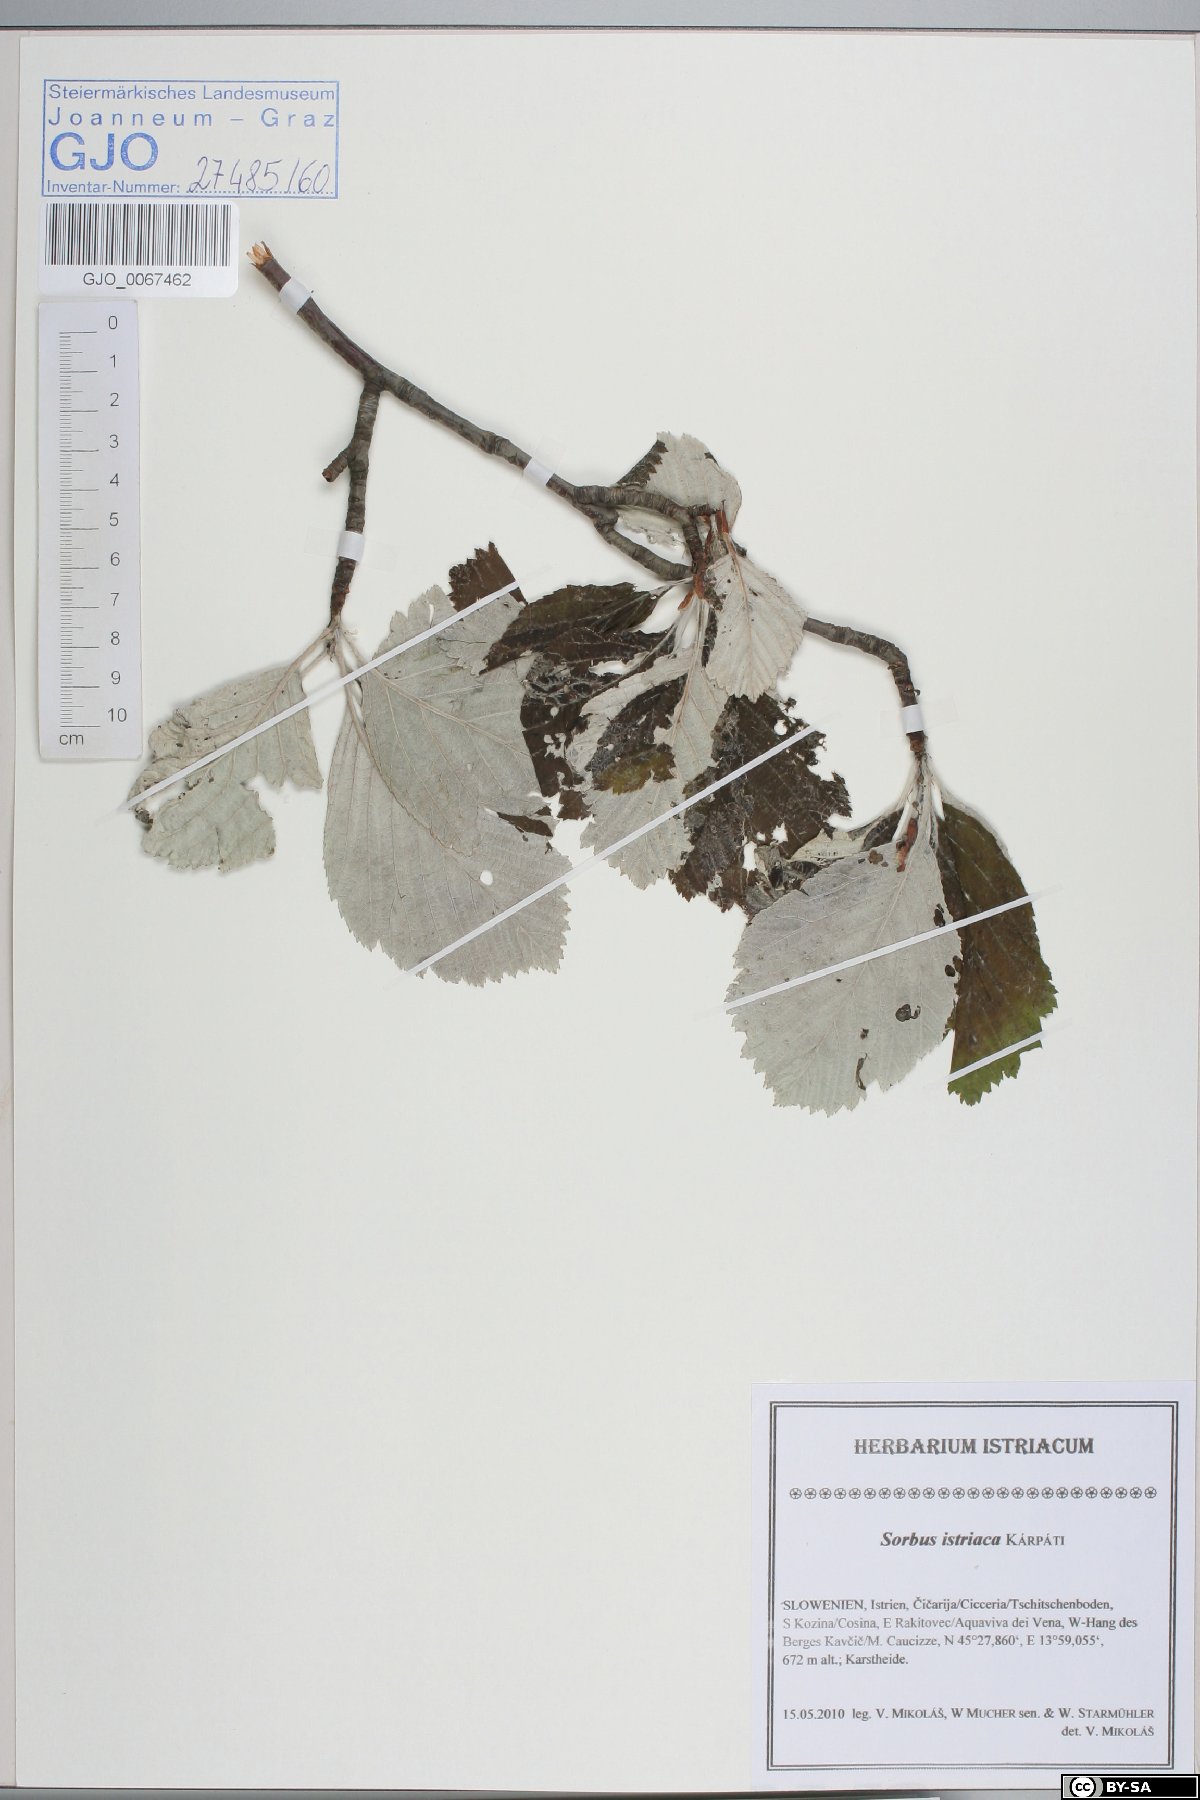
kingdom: Plantae
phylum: Tracheophyta
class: Magnoliopsida
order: Rosales
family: Rosaceae
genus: Karpatiosorbus
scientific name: Karpatiosorbus istriaca
